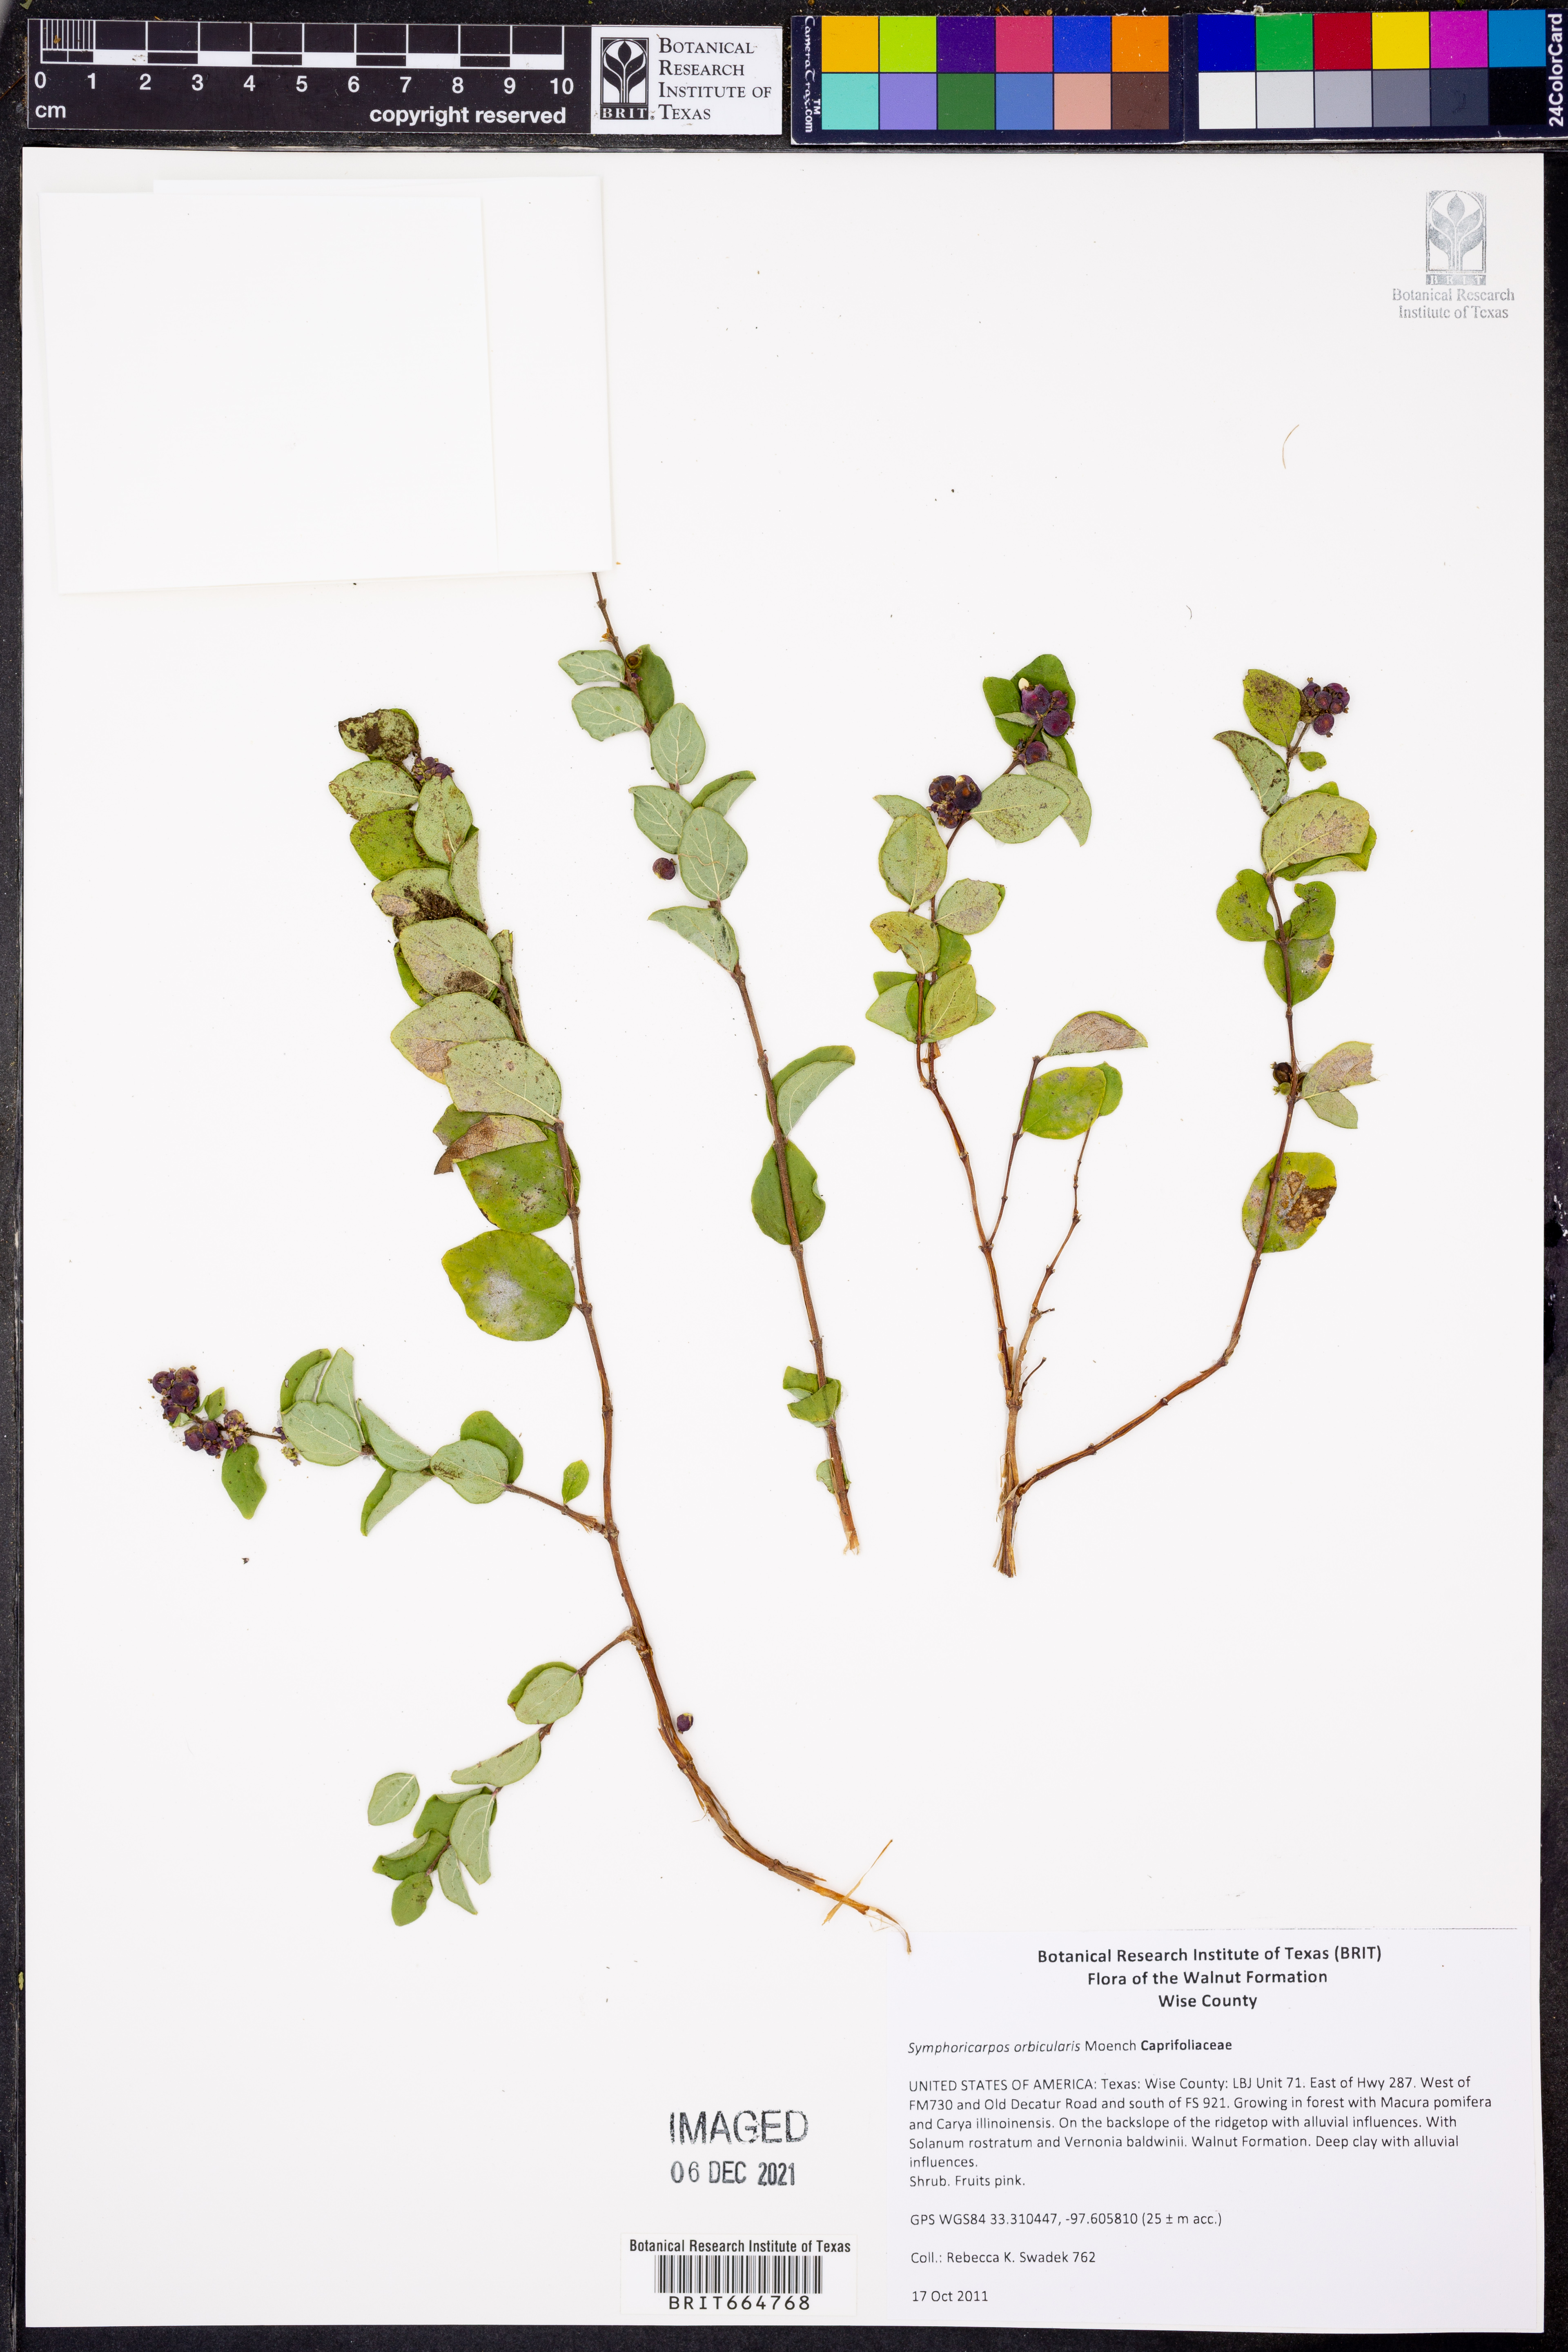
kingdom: Plantae
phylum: Tracheophyta
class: Magnoliopsida
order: Dipsacales
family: Caprifoliaceae
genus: Symphoricarpos
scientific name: Symphoricarpos orbiculatus
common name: Coralberry
